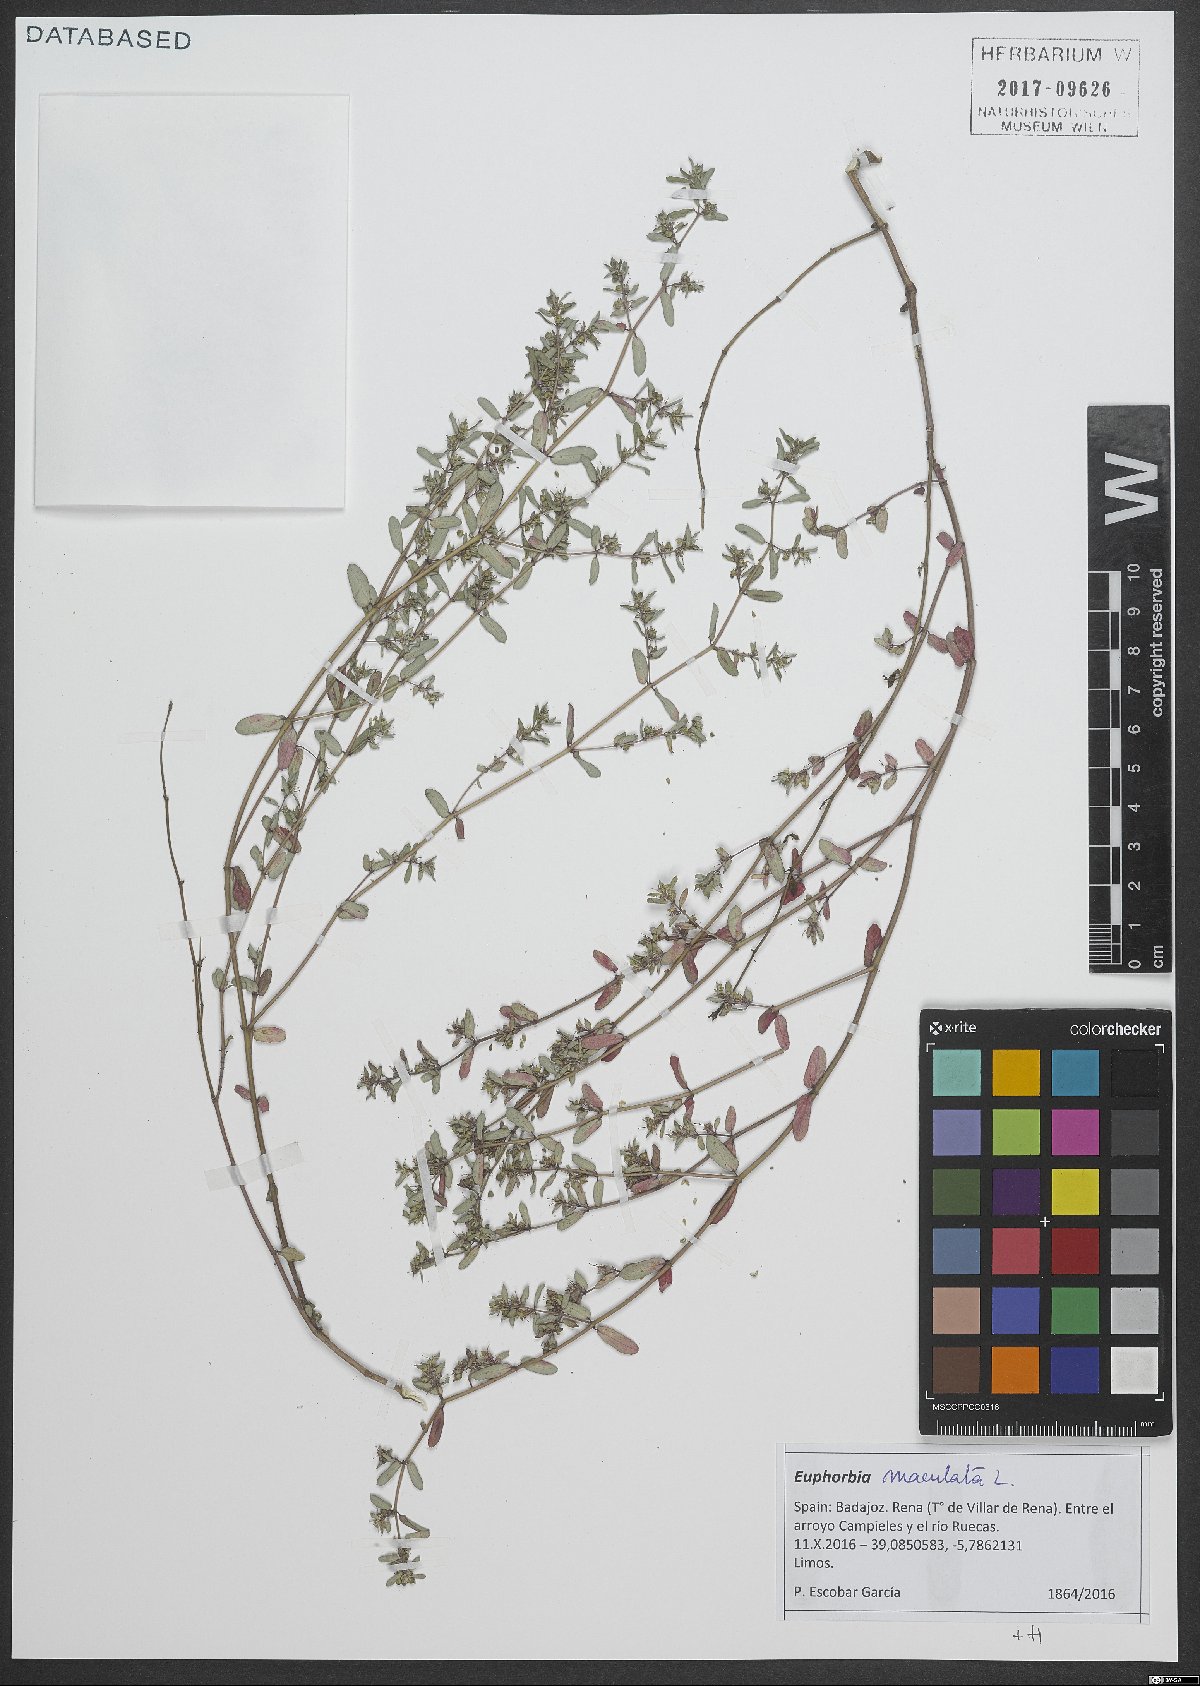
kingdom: Plantae
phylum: Tracheophyta
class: Magnoliopsida
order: Malpighiales
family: Euphorbiaceae
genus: Euphorbia
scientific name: Euphorbia maculata
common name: Spotted spurge
